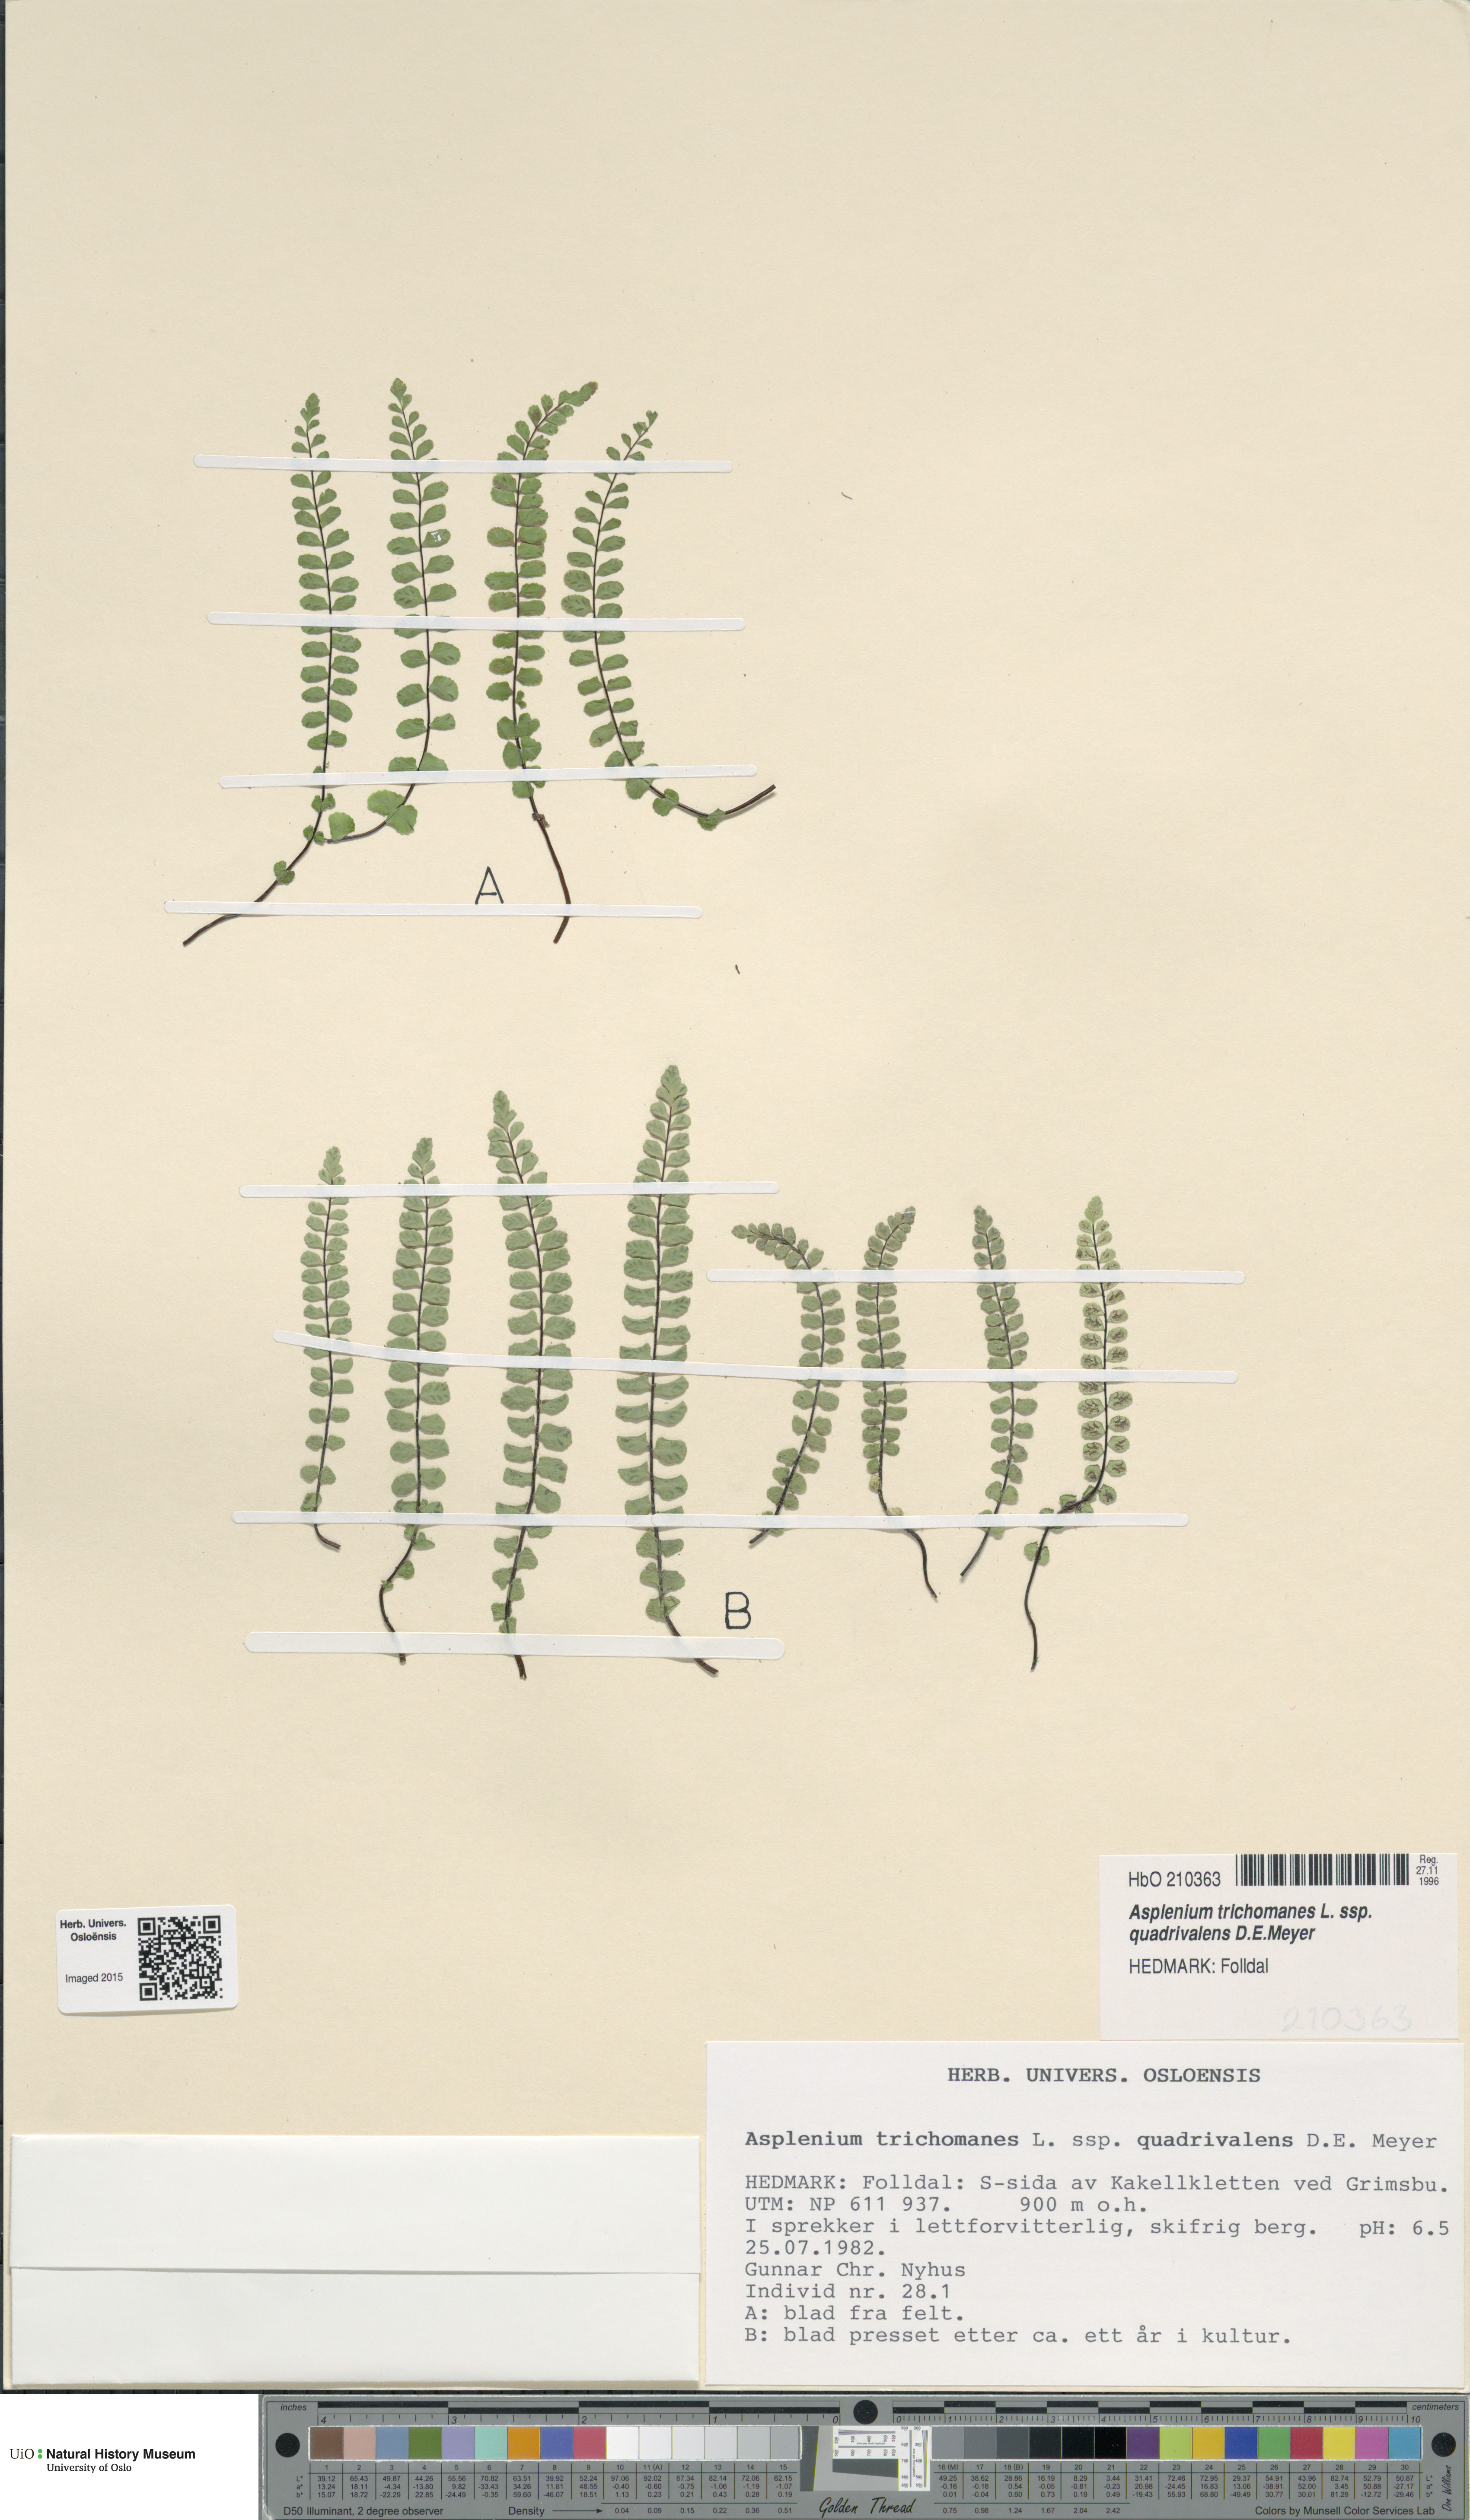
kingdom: Plantae
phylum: Tracheophyta
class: Polypodiopsida
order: Polypodiales
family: Aspleniaceae
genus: Asplenium
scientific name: Asplenium quadrivalens
